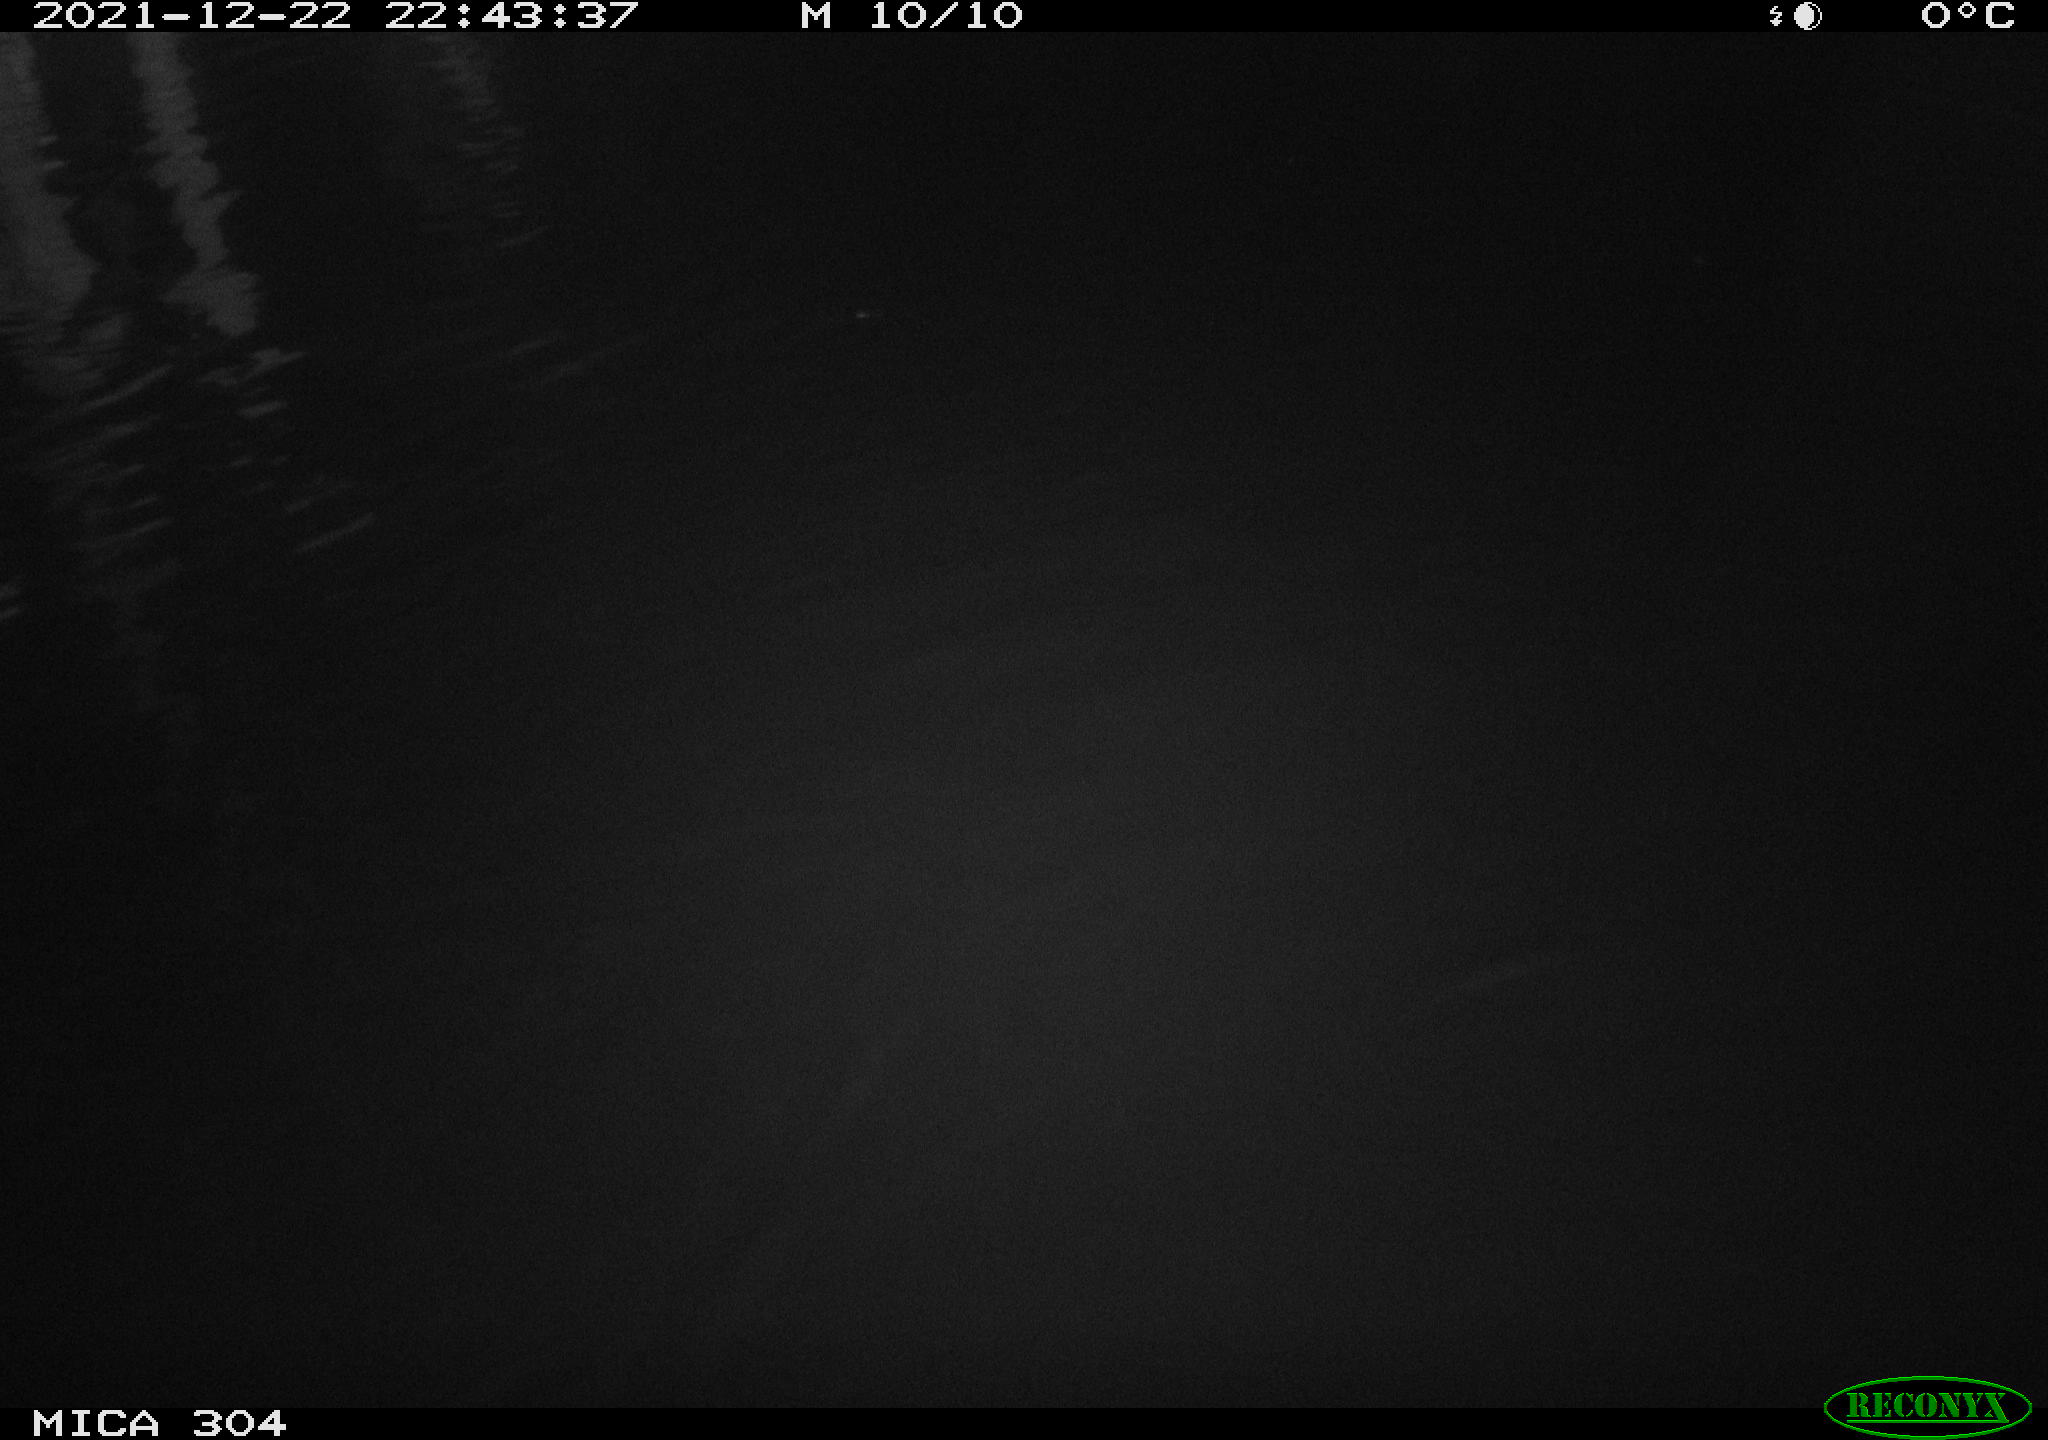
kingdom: Animalia
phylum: Chordata
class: Mammalia
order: Rodentia
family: Muridae
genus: Rattus
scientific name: Rattus norvegicus
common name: Brown rat
